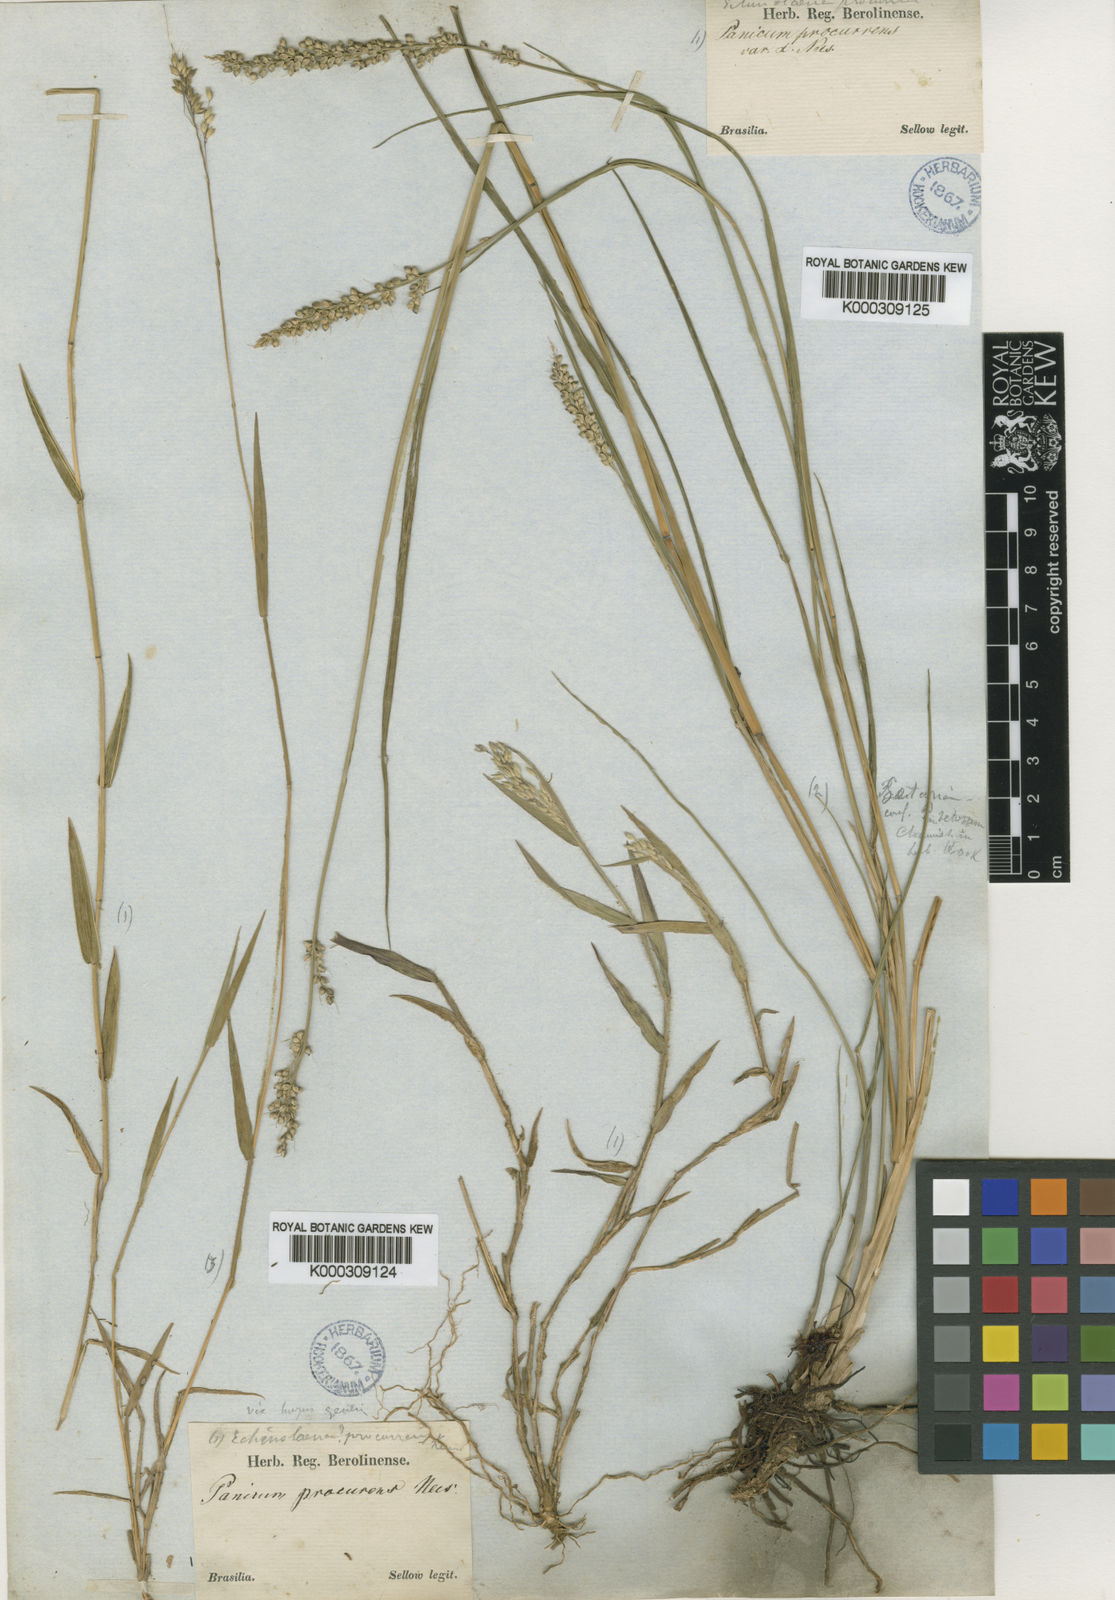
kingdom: Plantae
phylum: Tracheophyta
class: Liliopsida
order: Poales
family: Poaceae
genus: Oedochloa
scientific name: Oedochloa procurrens
